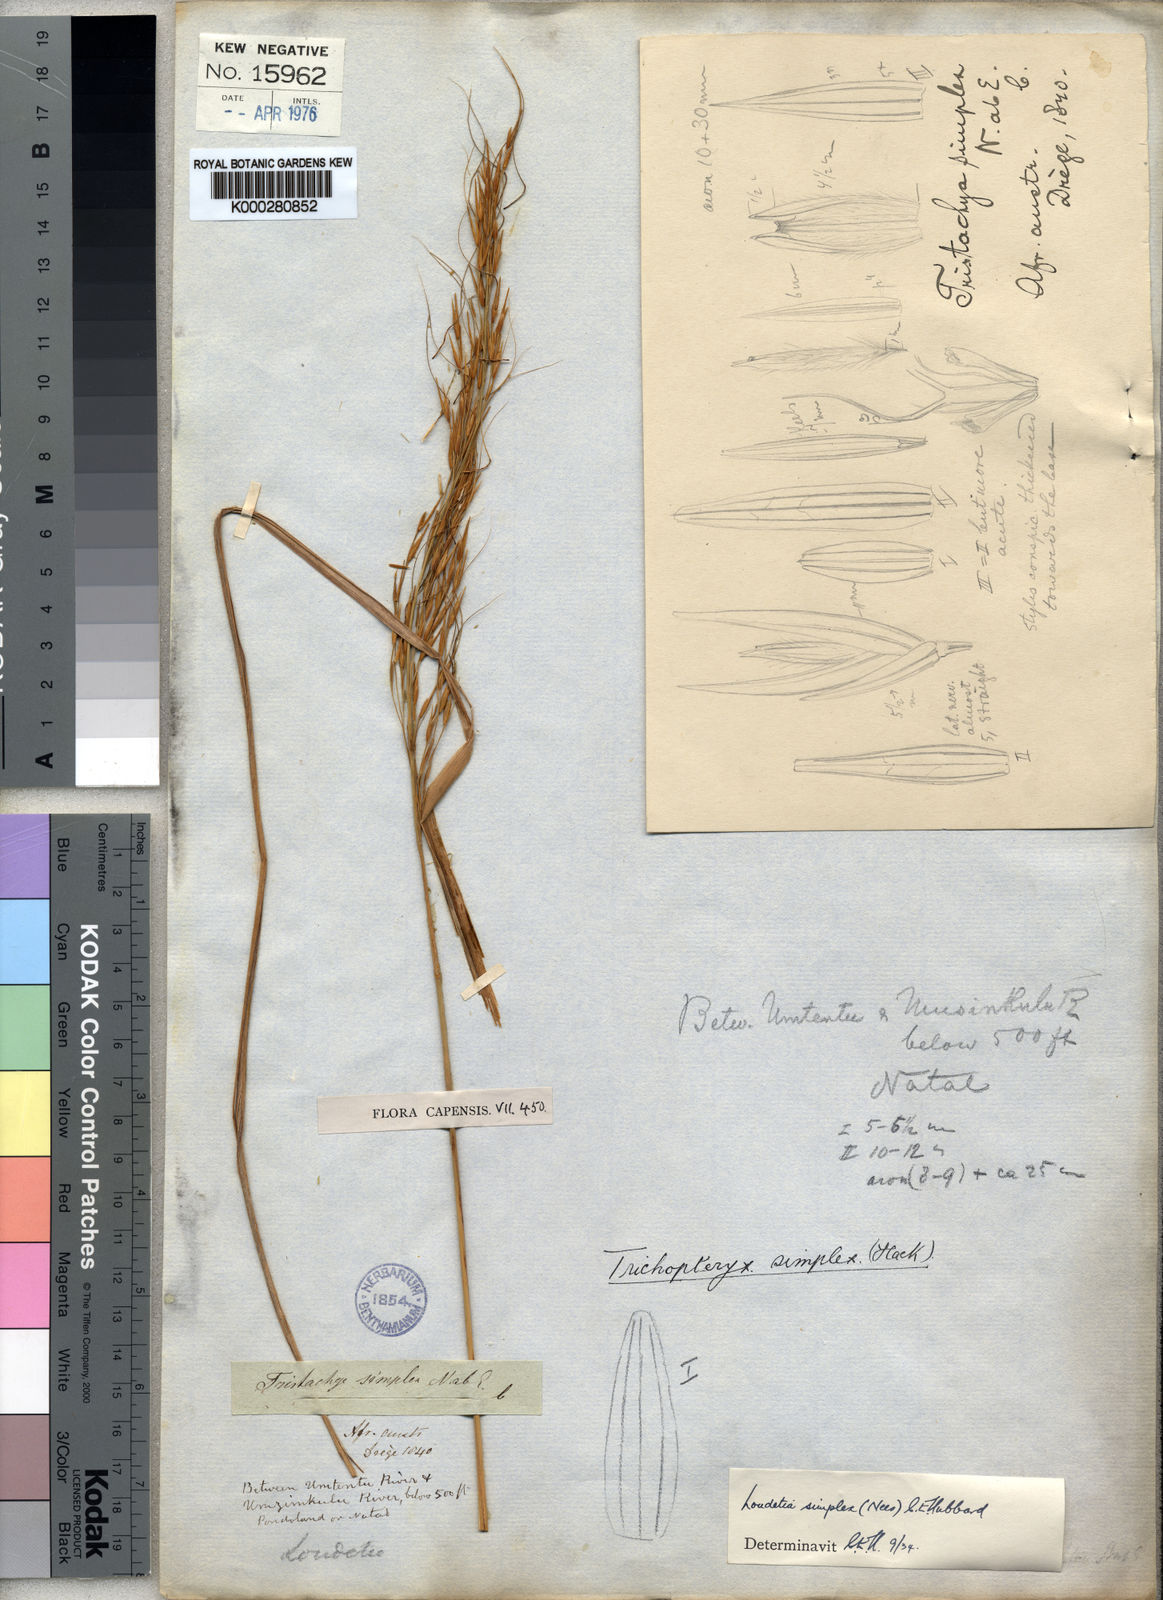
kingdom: Plantae
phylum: Tracheophyta
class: Liliopsida
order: Poales
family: Poaceae
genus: Loudetia
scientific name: Loudetia simplex
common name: Common russet grass
